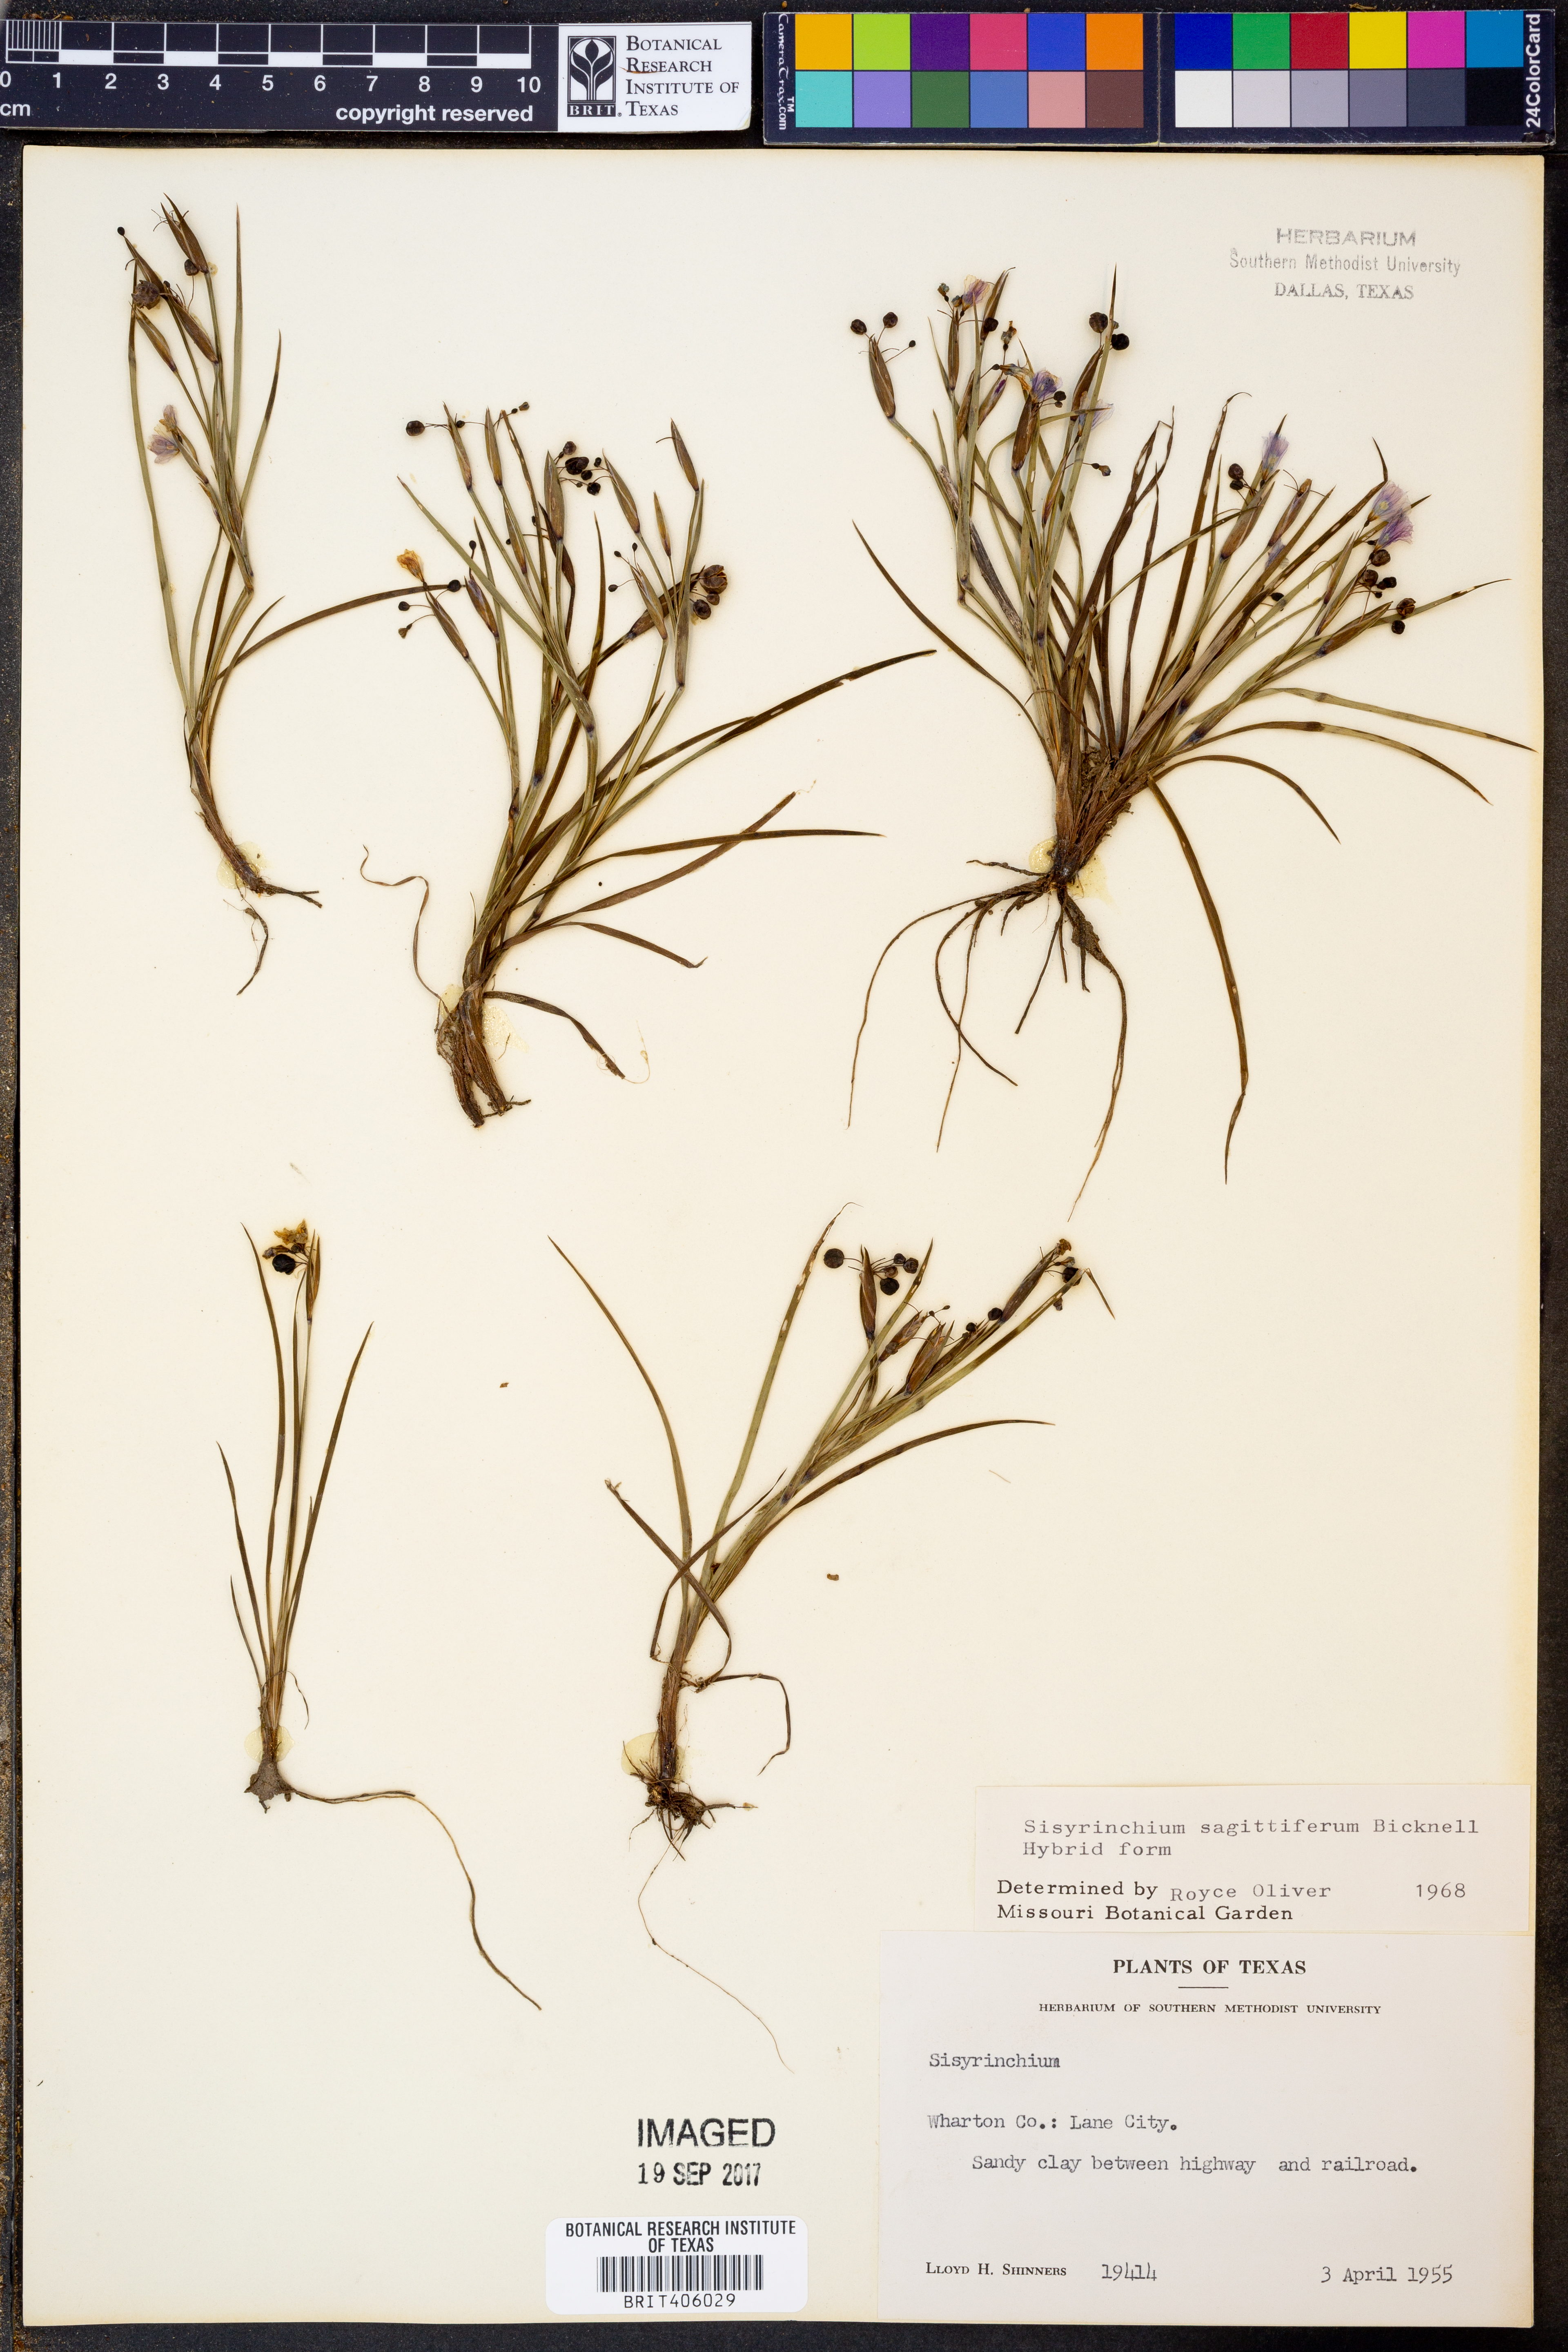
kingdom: Plantae
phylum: Tracheophyta
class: Liliopsida
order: Asparagales
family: Iridaceae
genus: Sisyrinchium
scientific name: Sisyrinchium sagittiferum
